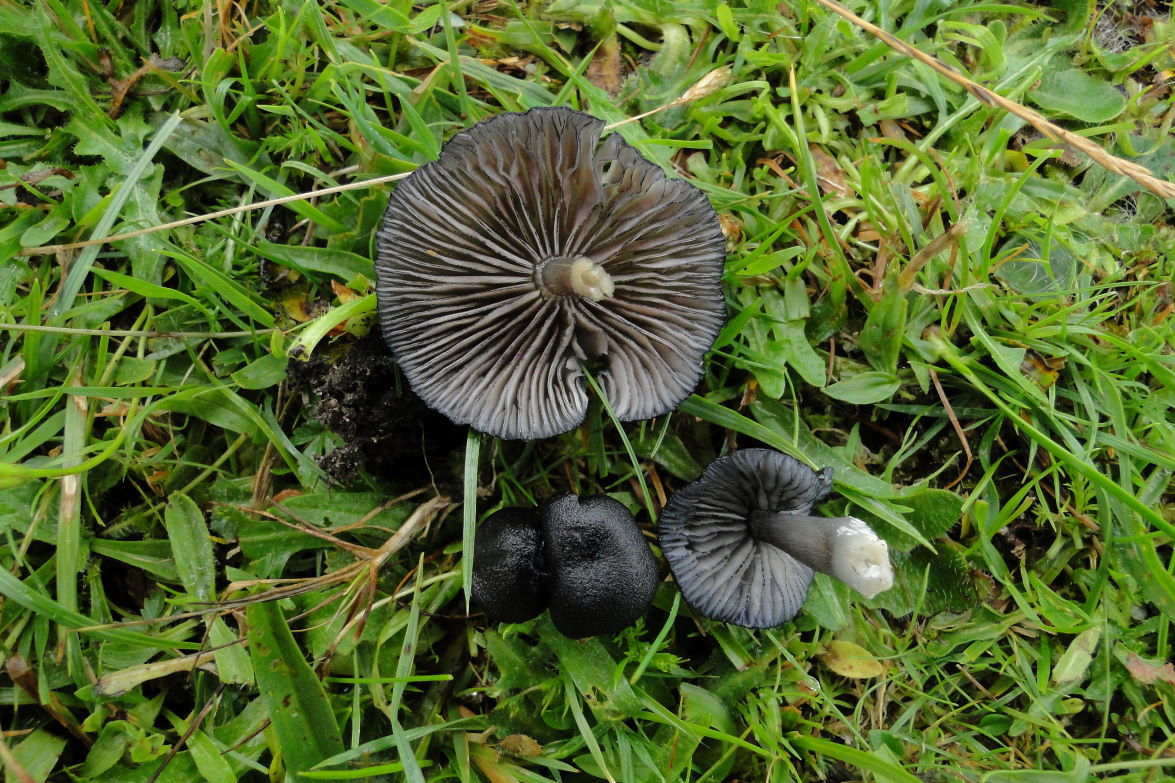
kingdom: Fungi
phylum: Basidiomycota
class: Agaricomycetes
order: Agaricales
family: Entolomataceae
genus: Entoloma
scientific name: Entoloma
